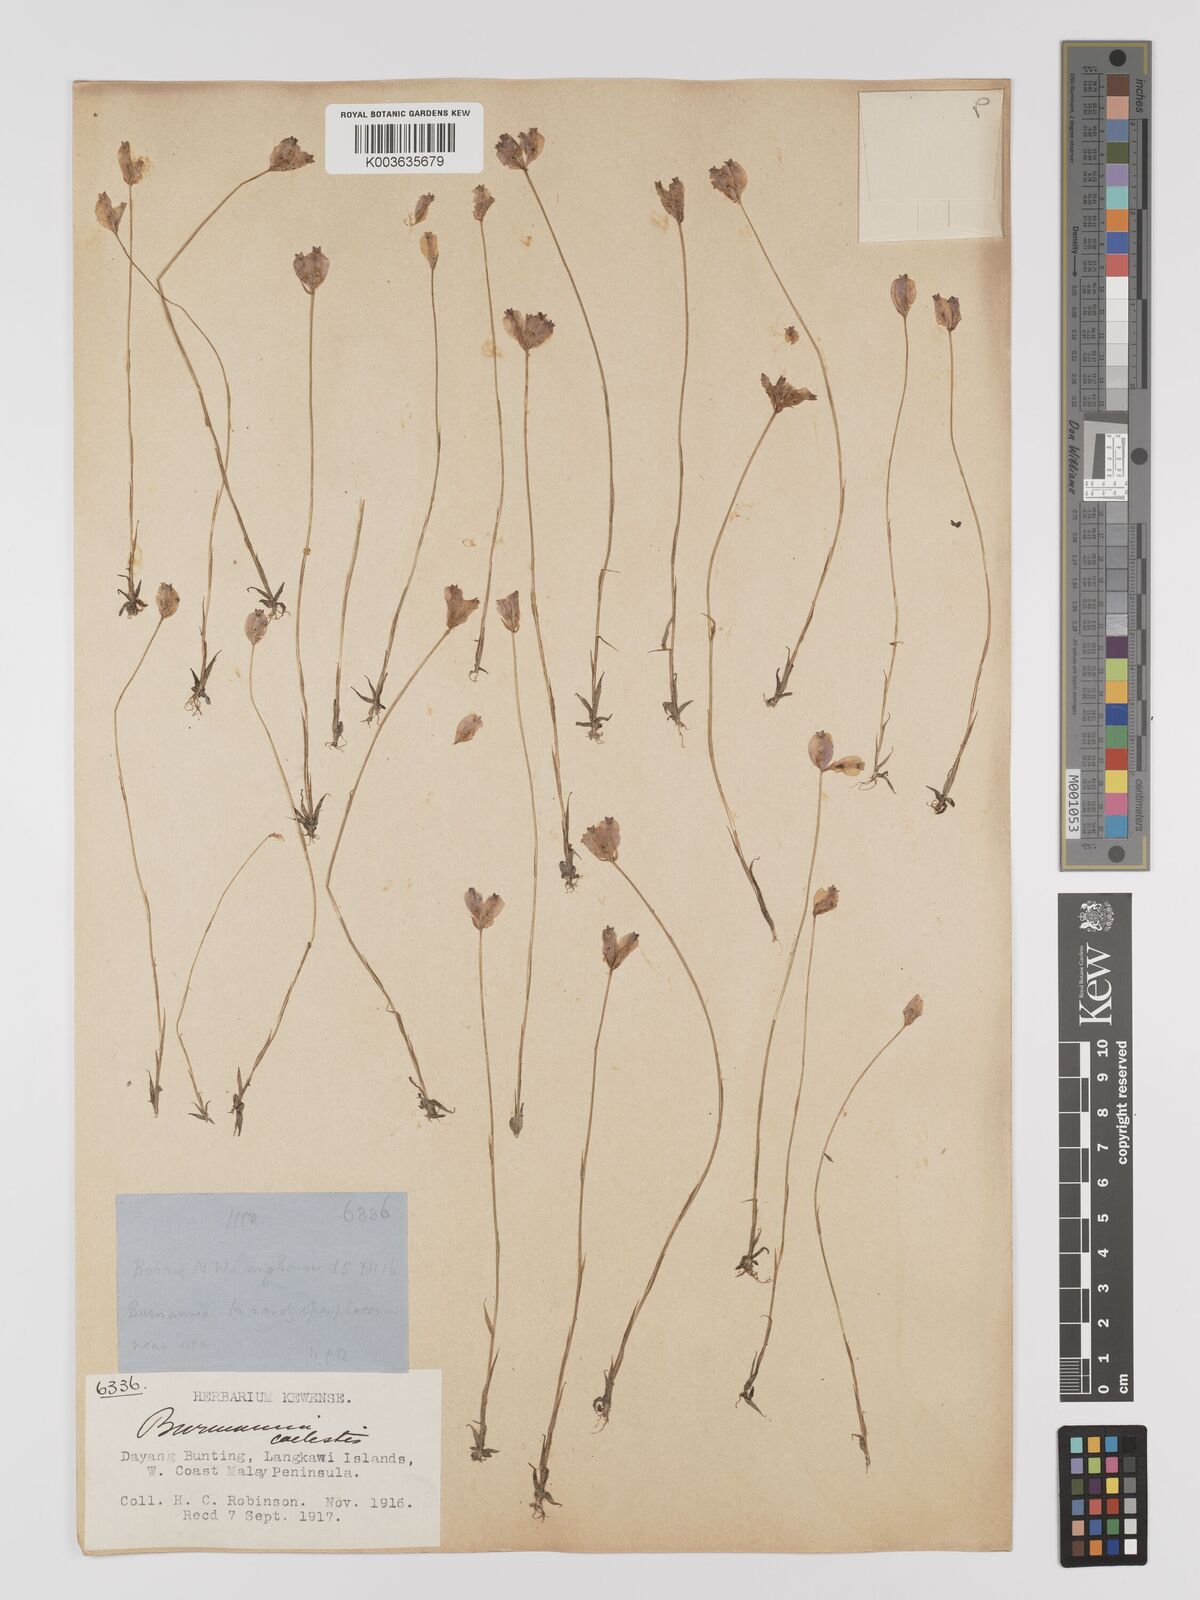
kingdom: Plantae
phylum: Tracheophyta
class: Liliopsida
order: Dioscoreales
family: Burmanniaceae
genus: Burmannia
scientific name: Burmannia coelestis
